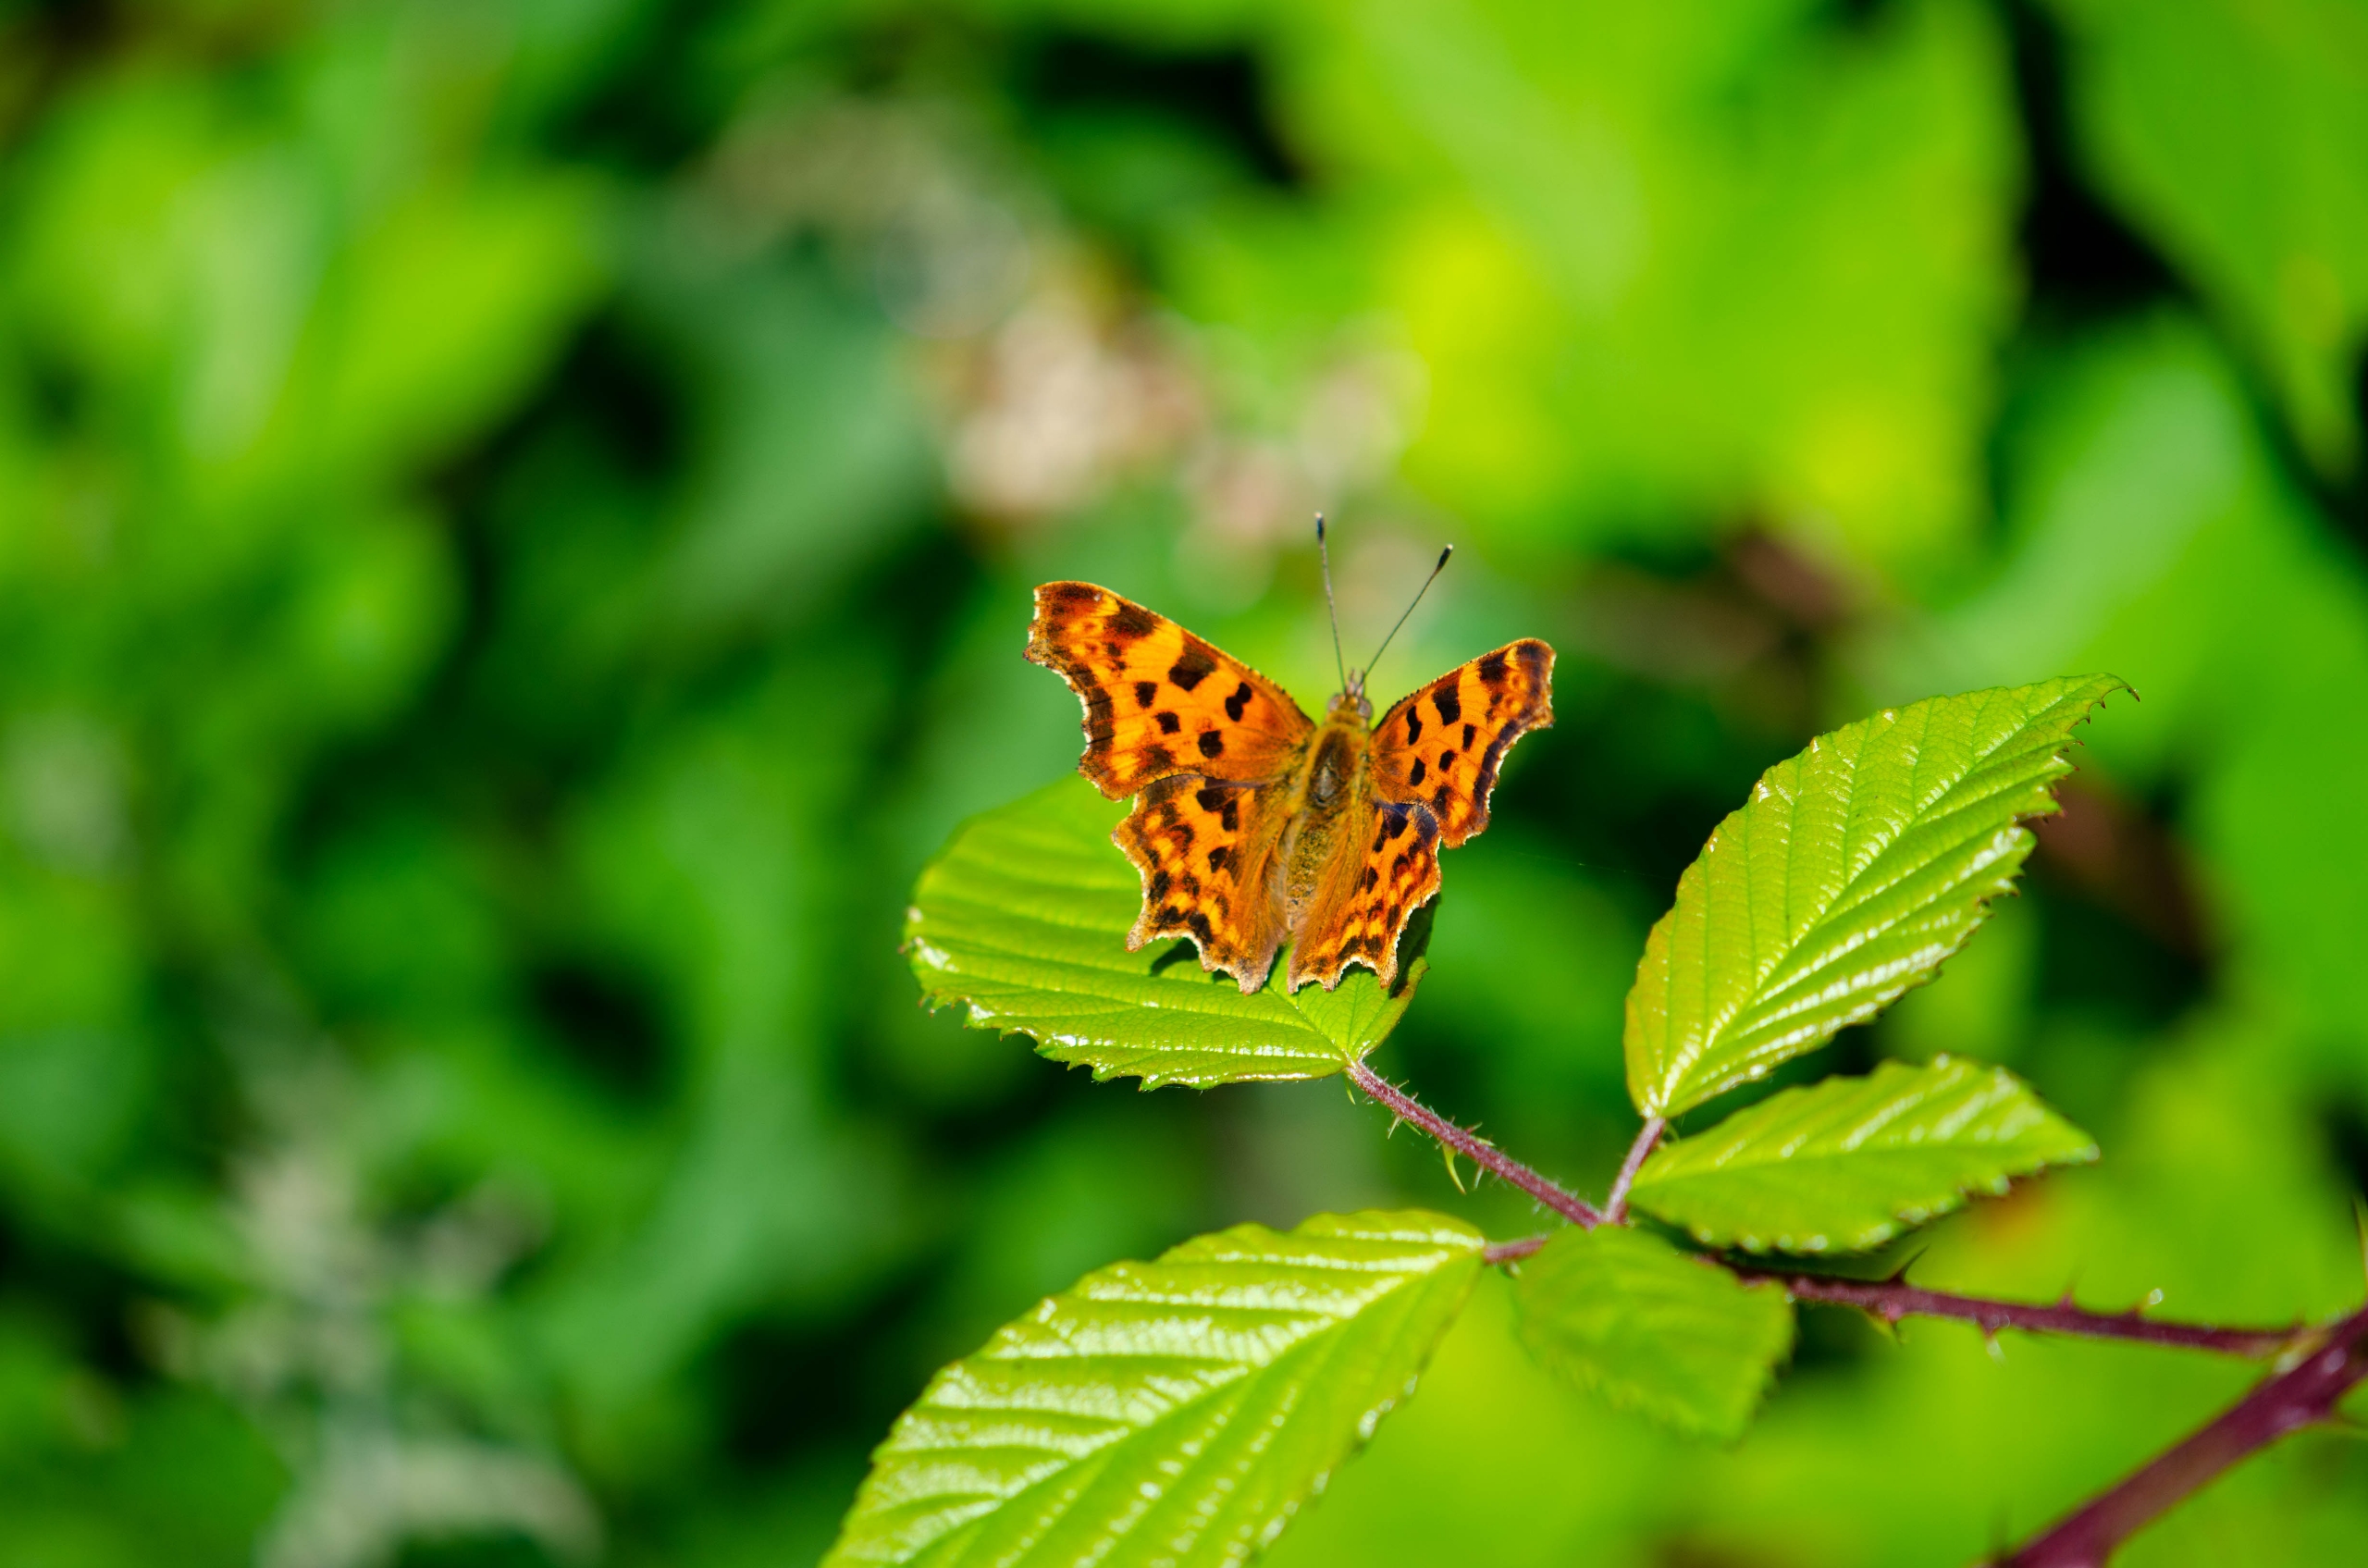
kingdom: Animalia
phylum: Arthropoda
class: Insecta
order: Lepidoptera
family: Nymphalidae
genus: Polygonia
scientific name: Polygonia c-album
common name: Det hvide C
